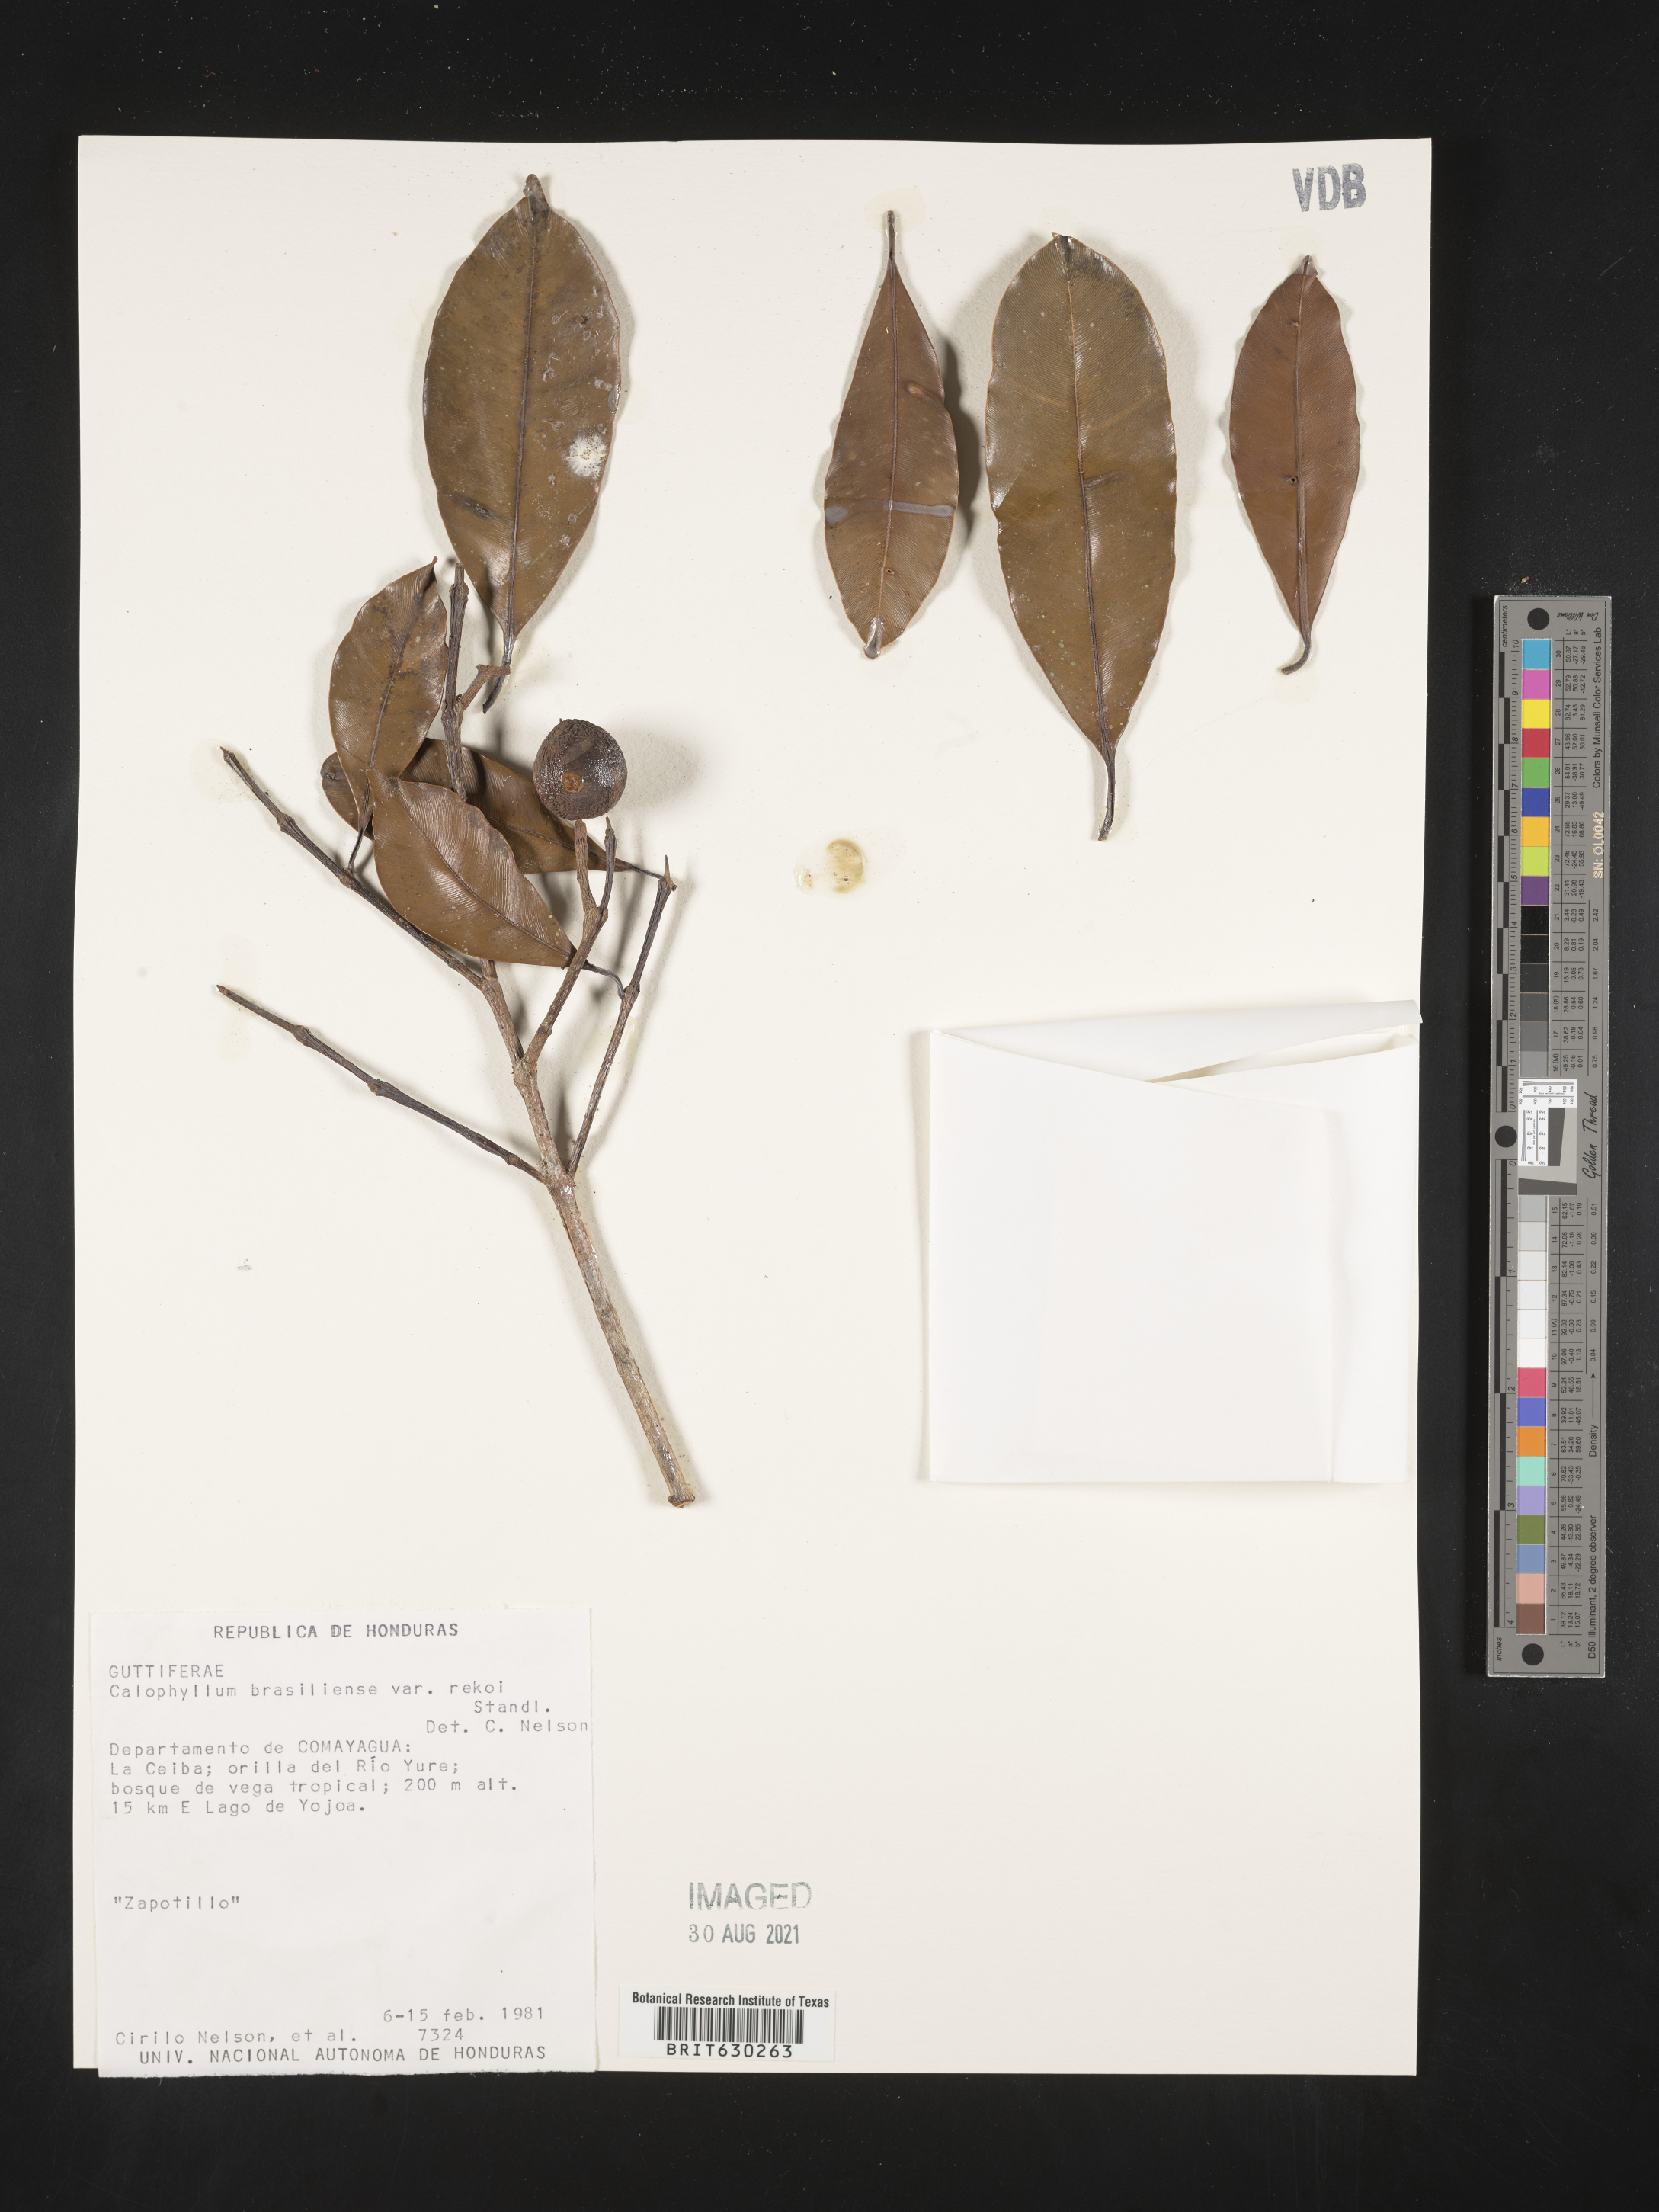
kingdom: Plantae
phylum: Tracheophyta
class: Magnoliopsida
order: Malpighiales
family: Calophyllaceae
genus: Calophyllum
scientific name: Calophyllum brasiliense
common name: Santa maria
